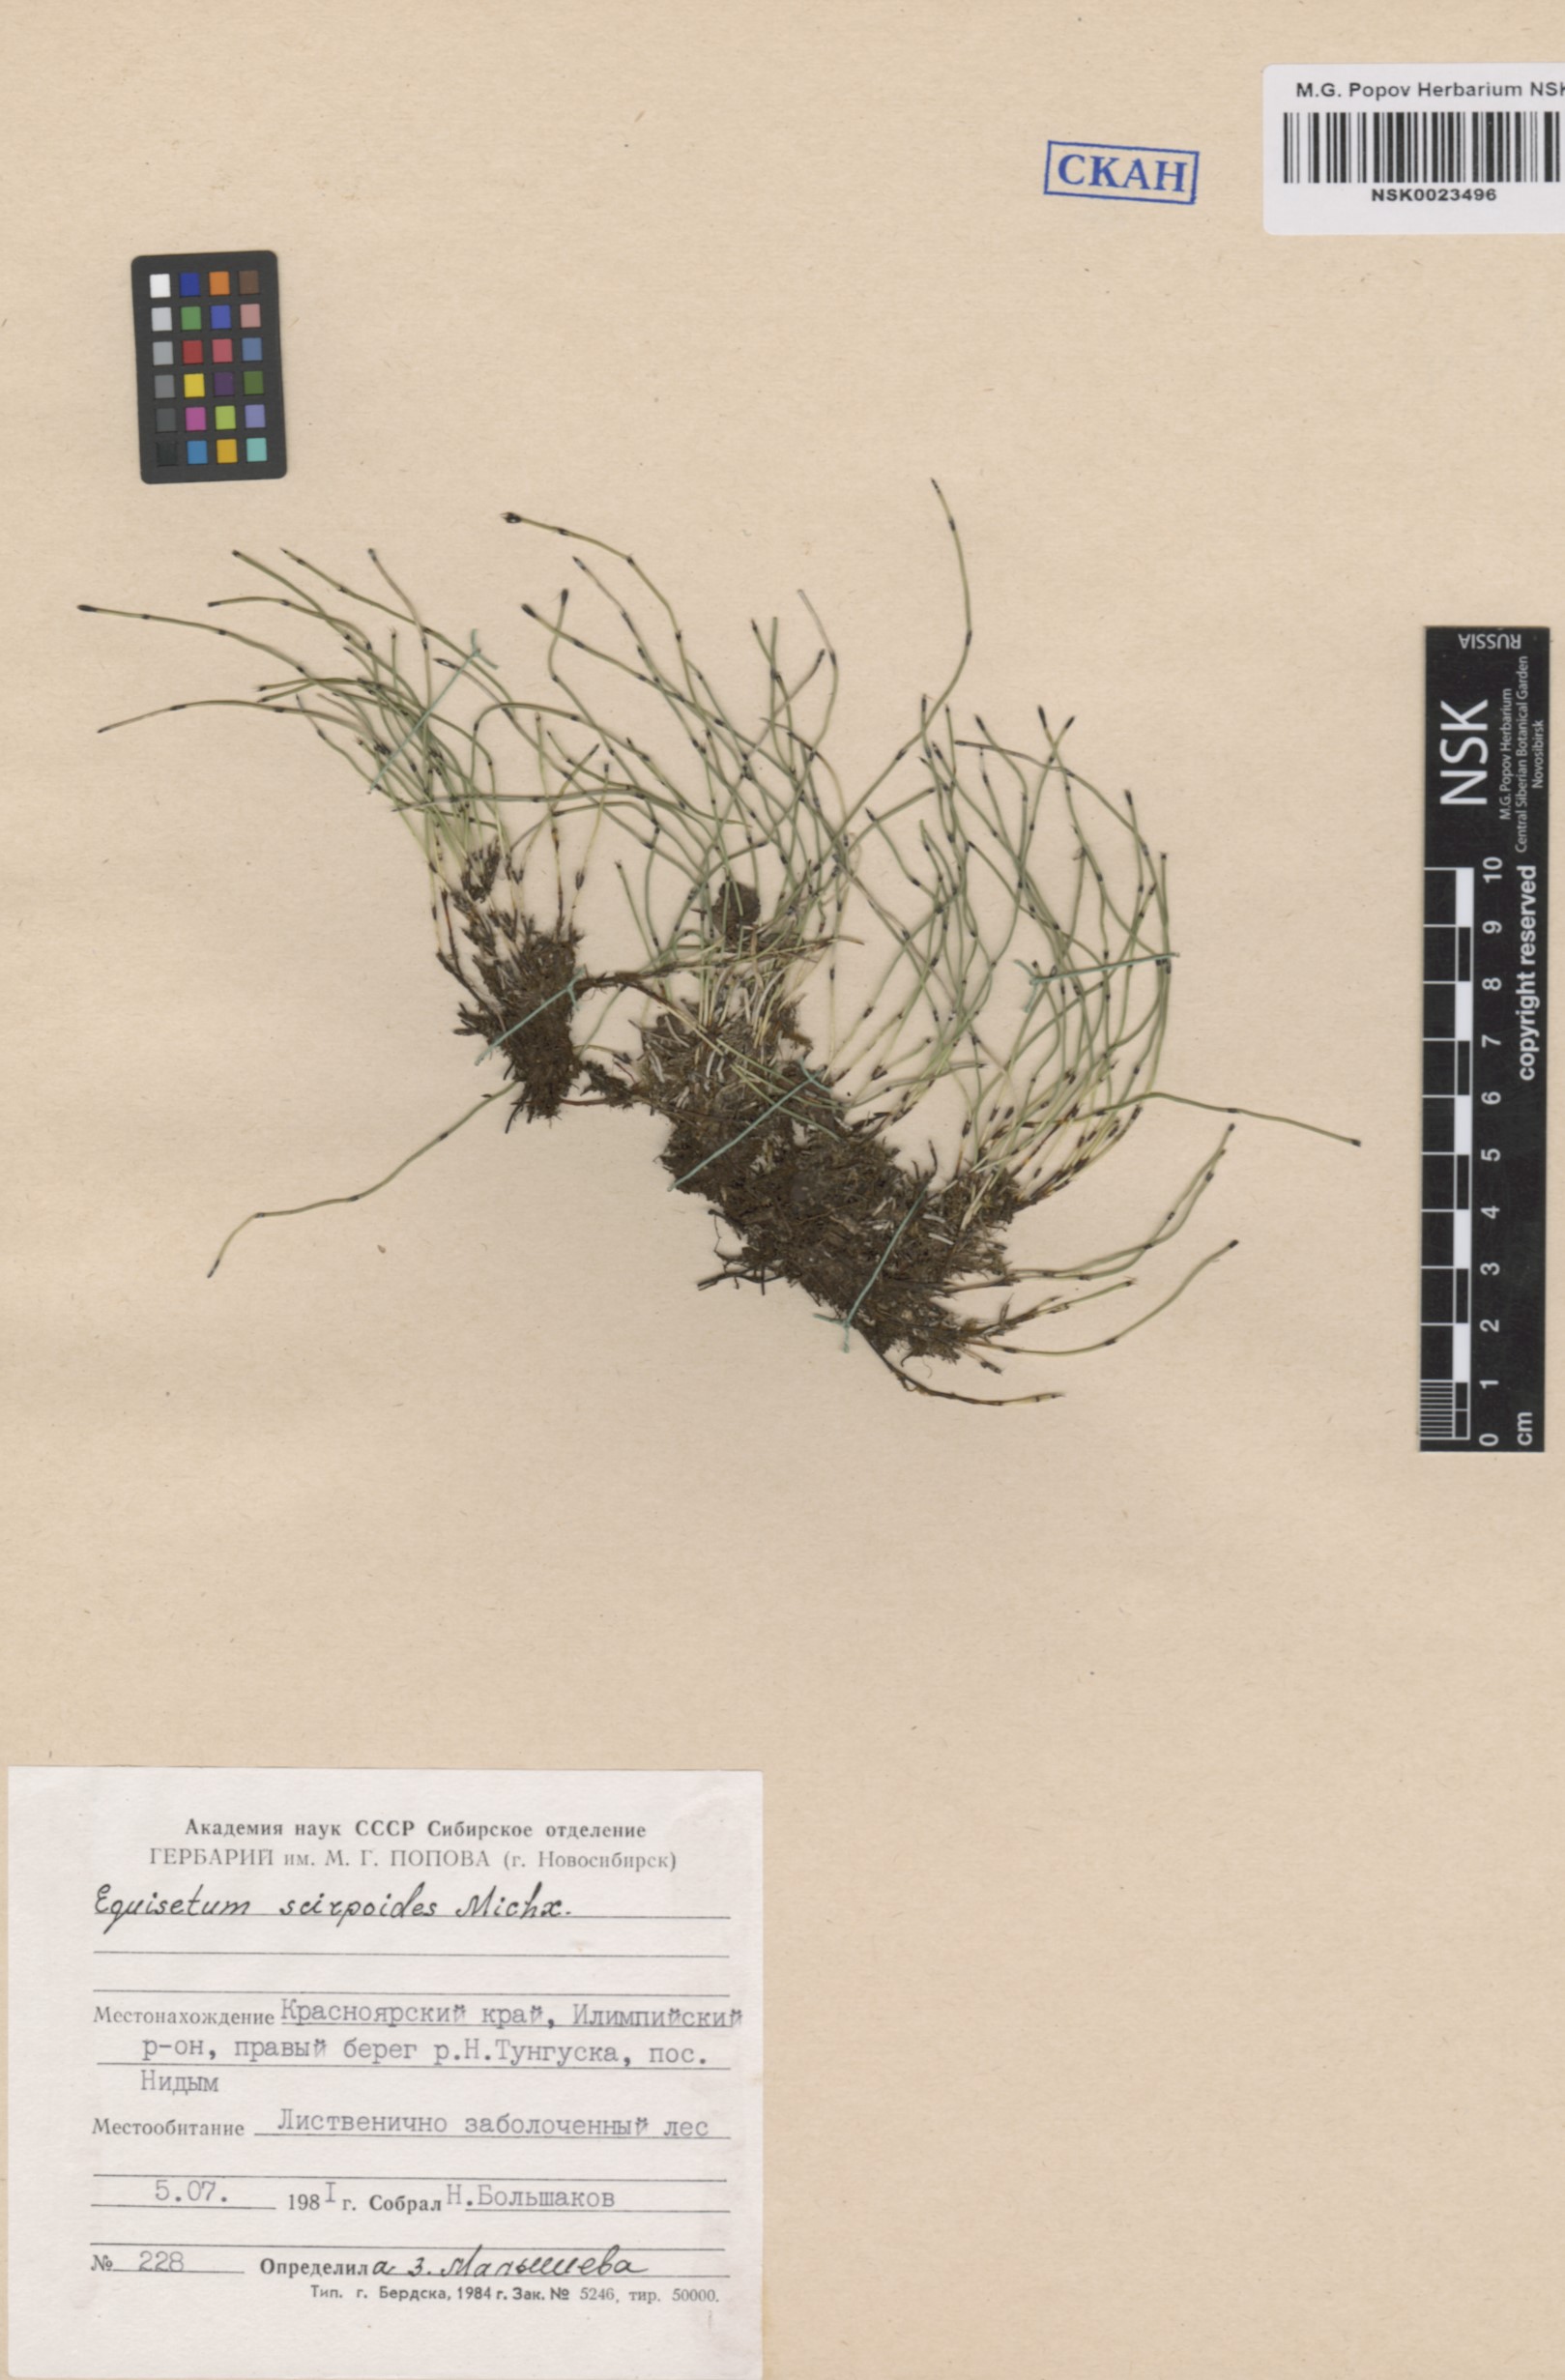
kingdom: Plantae
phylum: Tracheophyta
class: Polypodiopsida
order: Equisetales
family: Equisetaceae
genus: Equisetum
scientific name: Equisetum scirpoides
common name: Delicate horsetail
